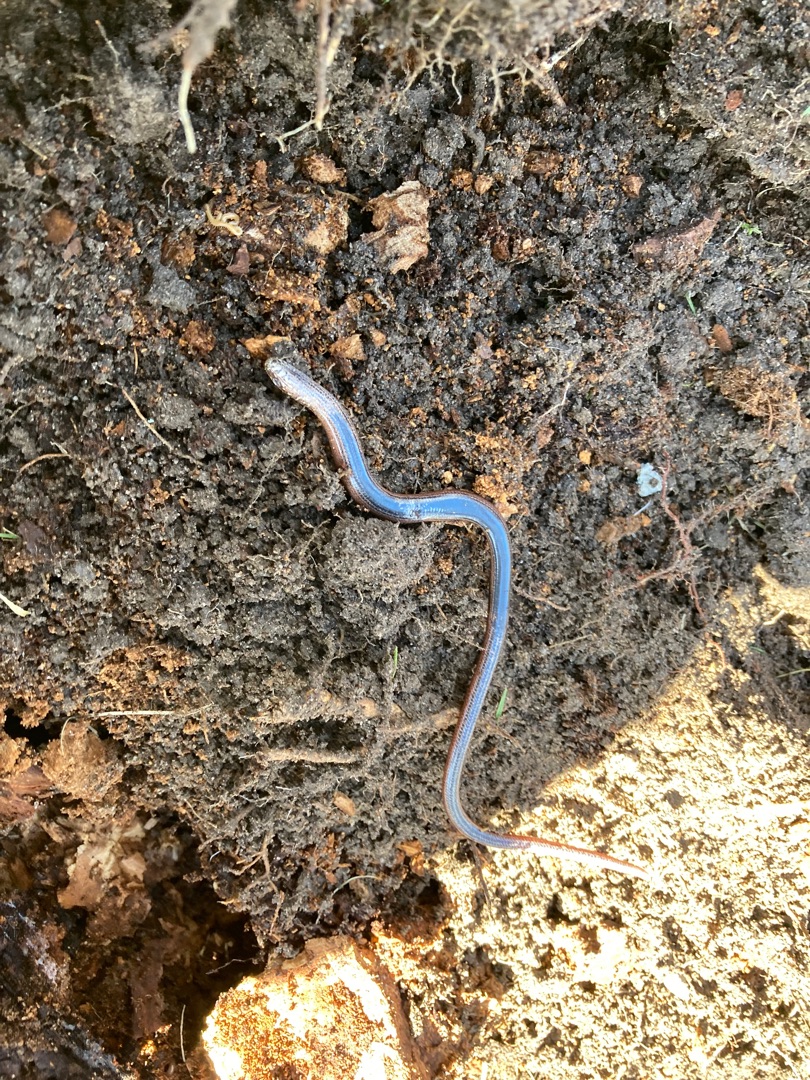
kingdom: Animalia
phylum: Chordata
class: Squamata
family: Anguidae
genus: Anguis
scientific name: Anguis fragilis
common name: Stålorm
